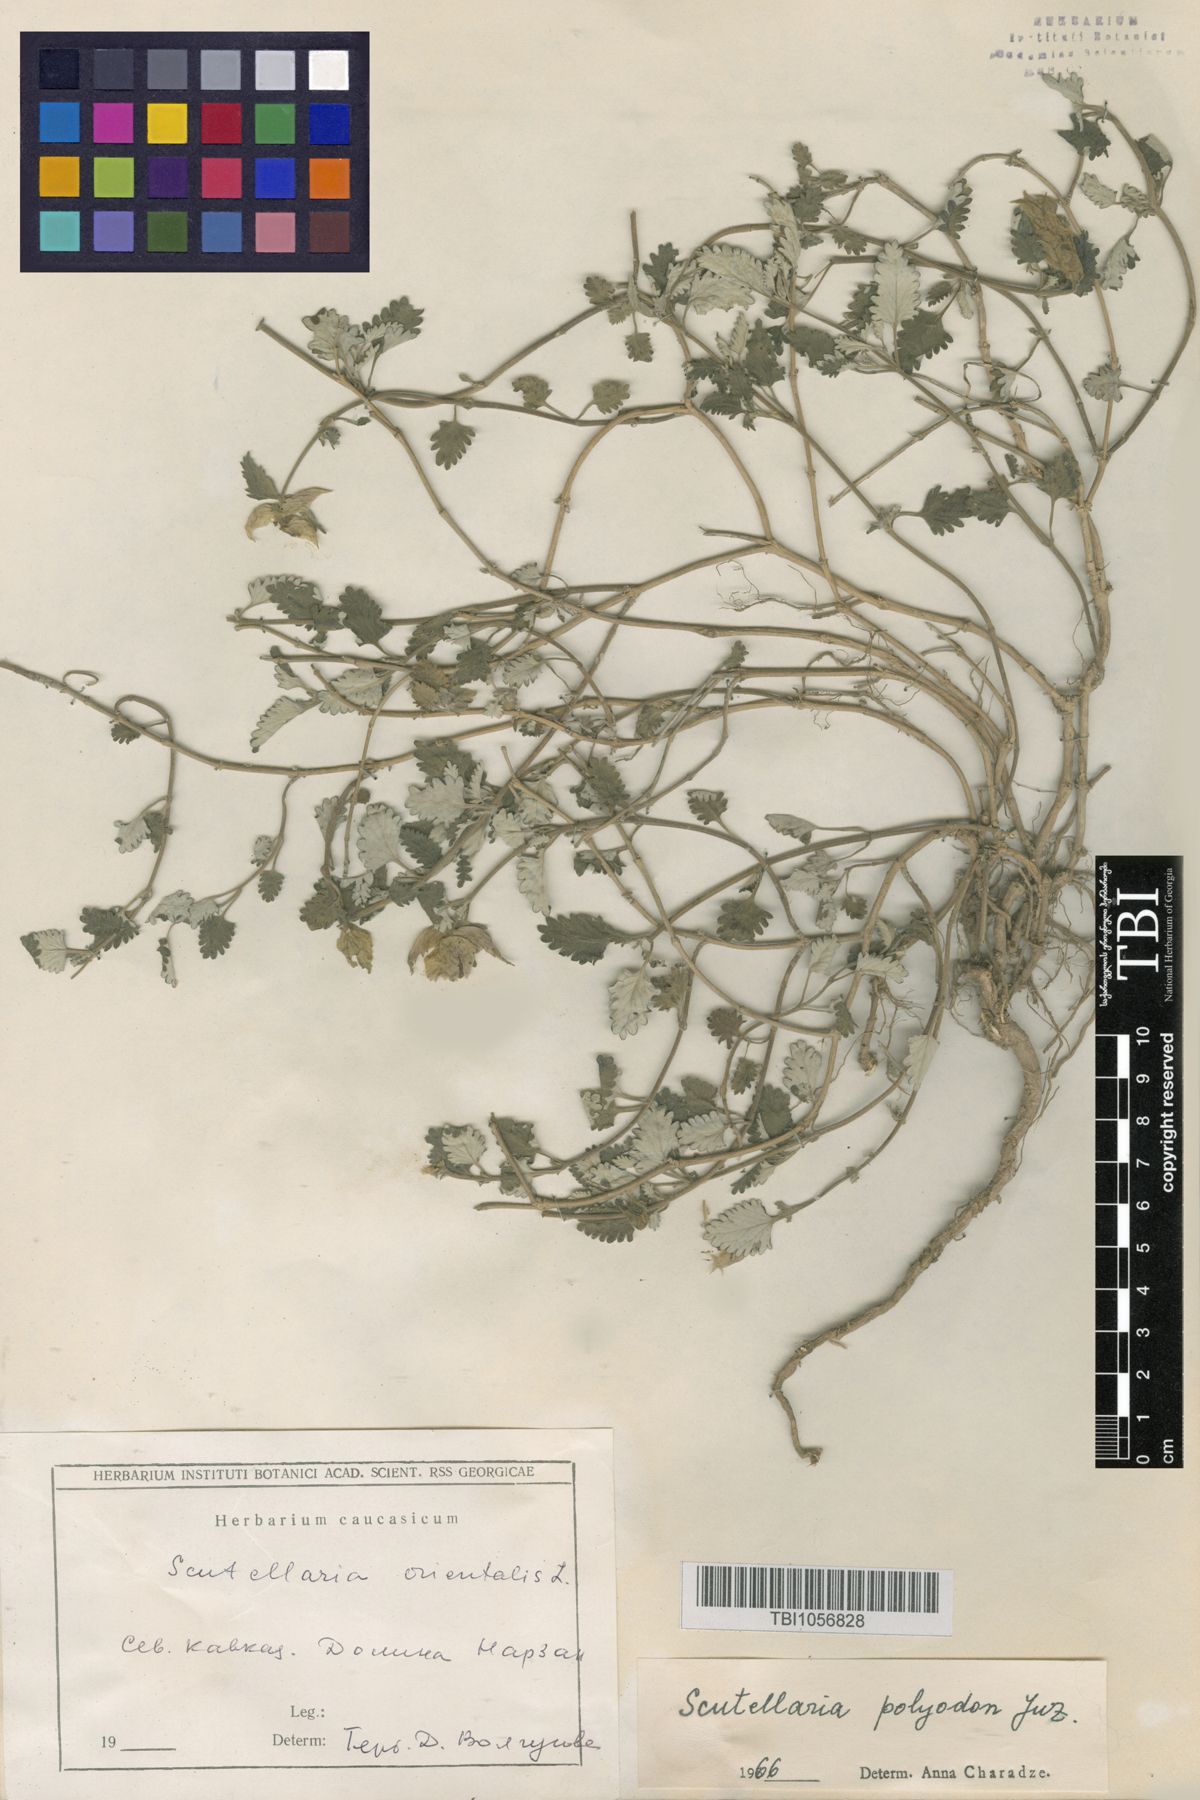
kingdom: Plantae
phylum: Tracheophyta
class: Magnoliopsida
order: Lamiales
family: Lamiaceae
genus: Scutellaria
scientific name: Scutellaria caucasica
